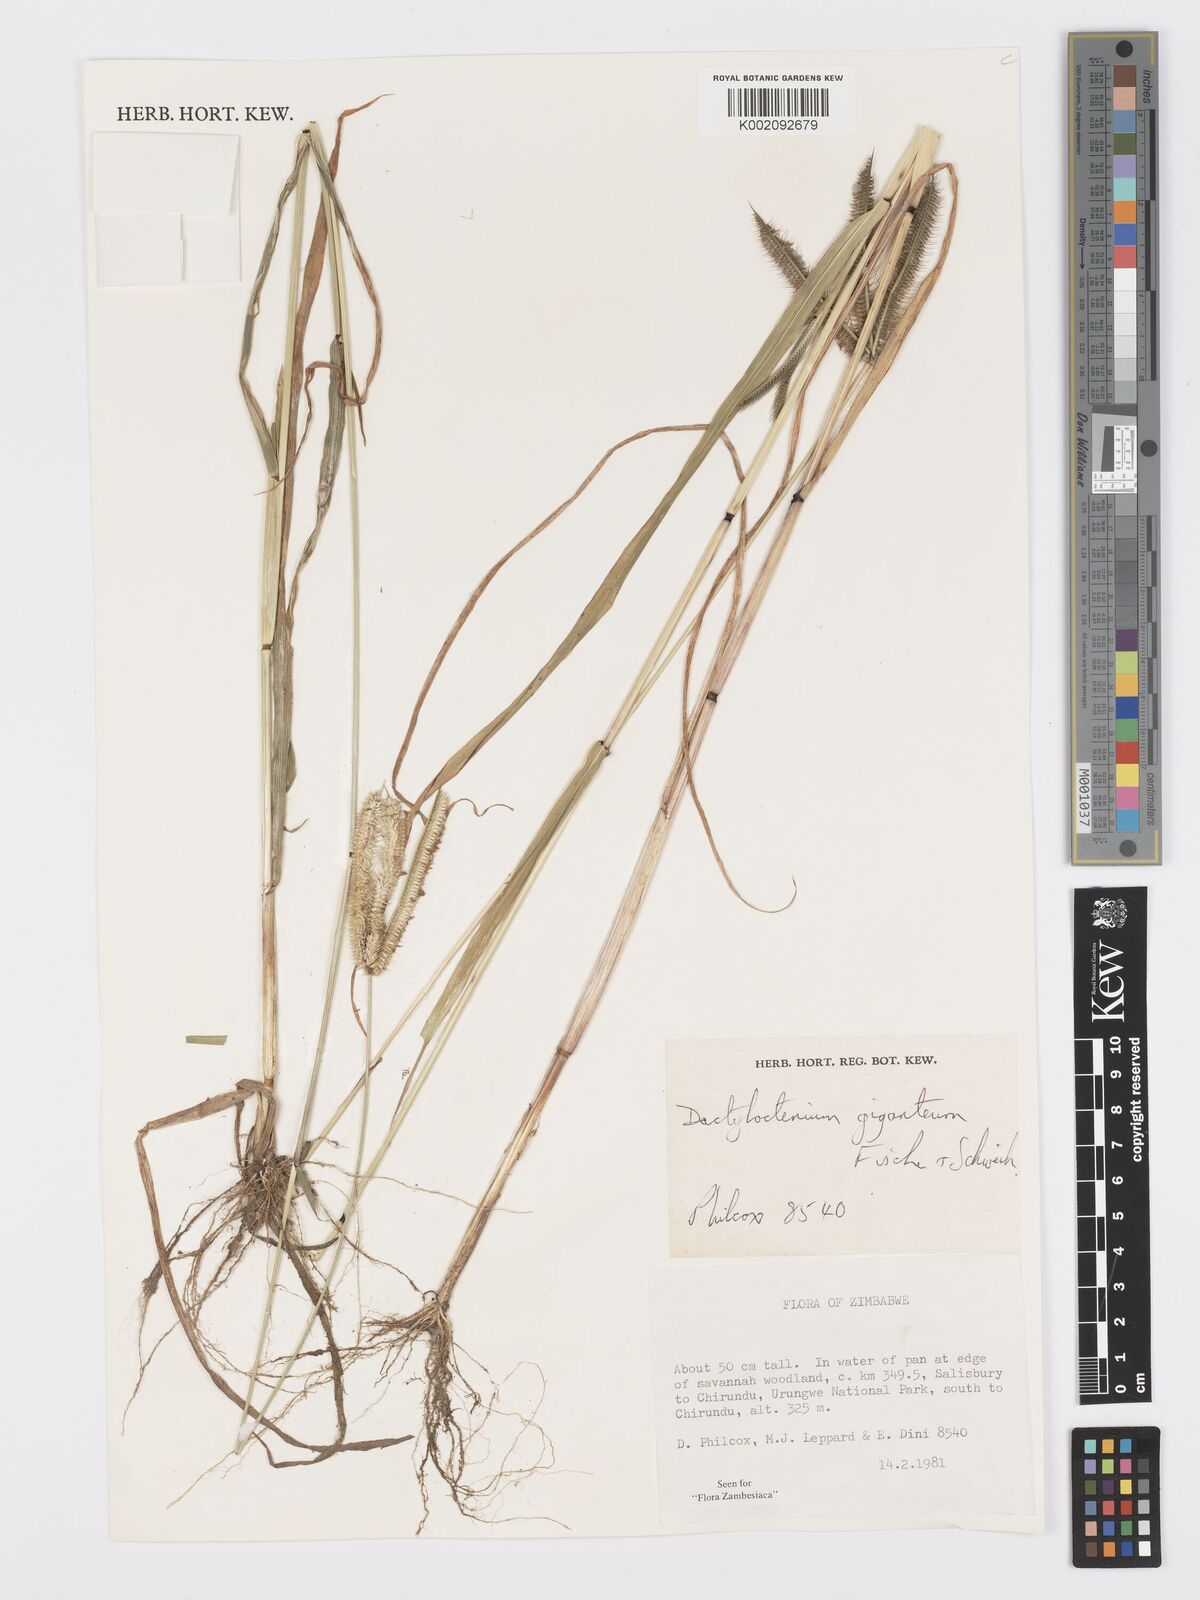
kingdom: Plantae
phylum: Tracheophyta
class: Liliopsida
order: Poales
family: Poaceae
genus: Dactyloctenium
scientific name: Dactyloctenium giganteum
